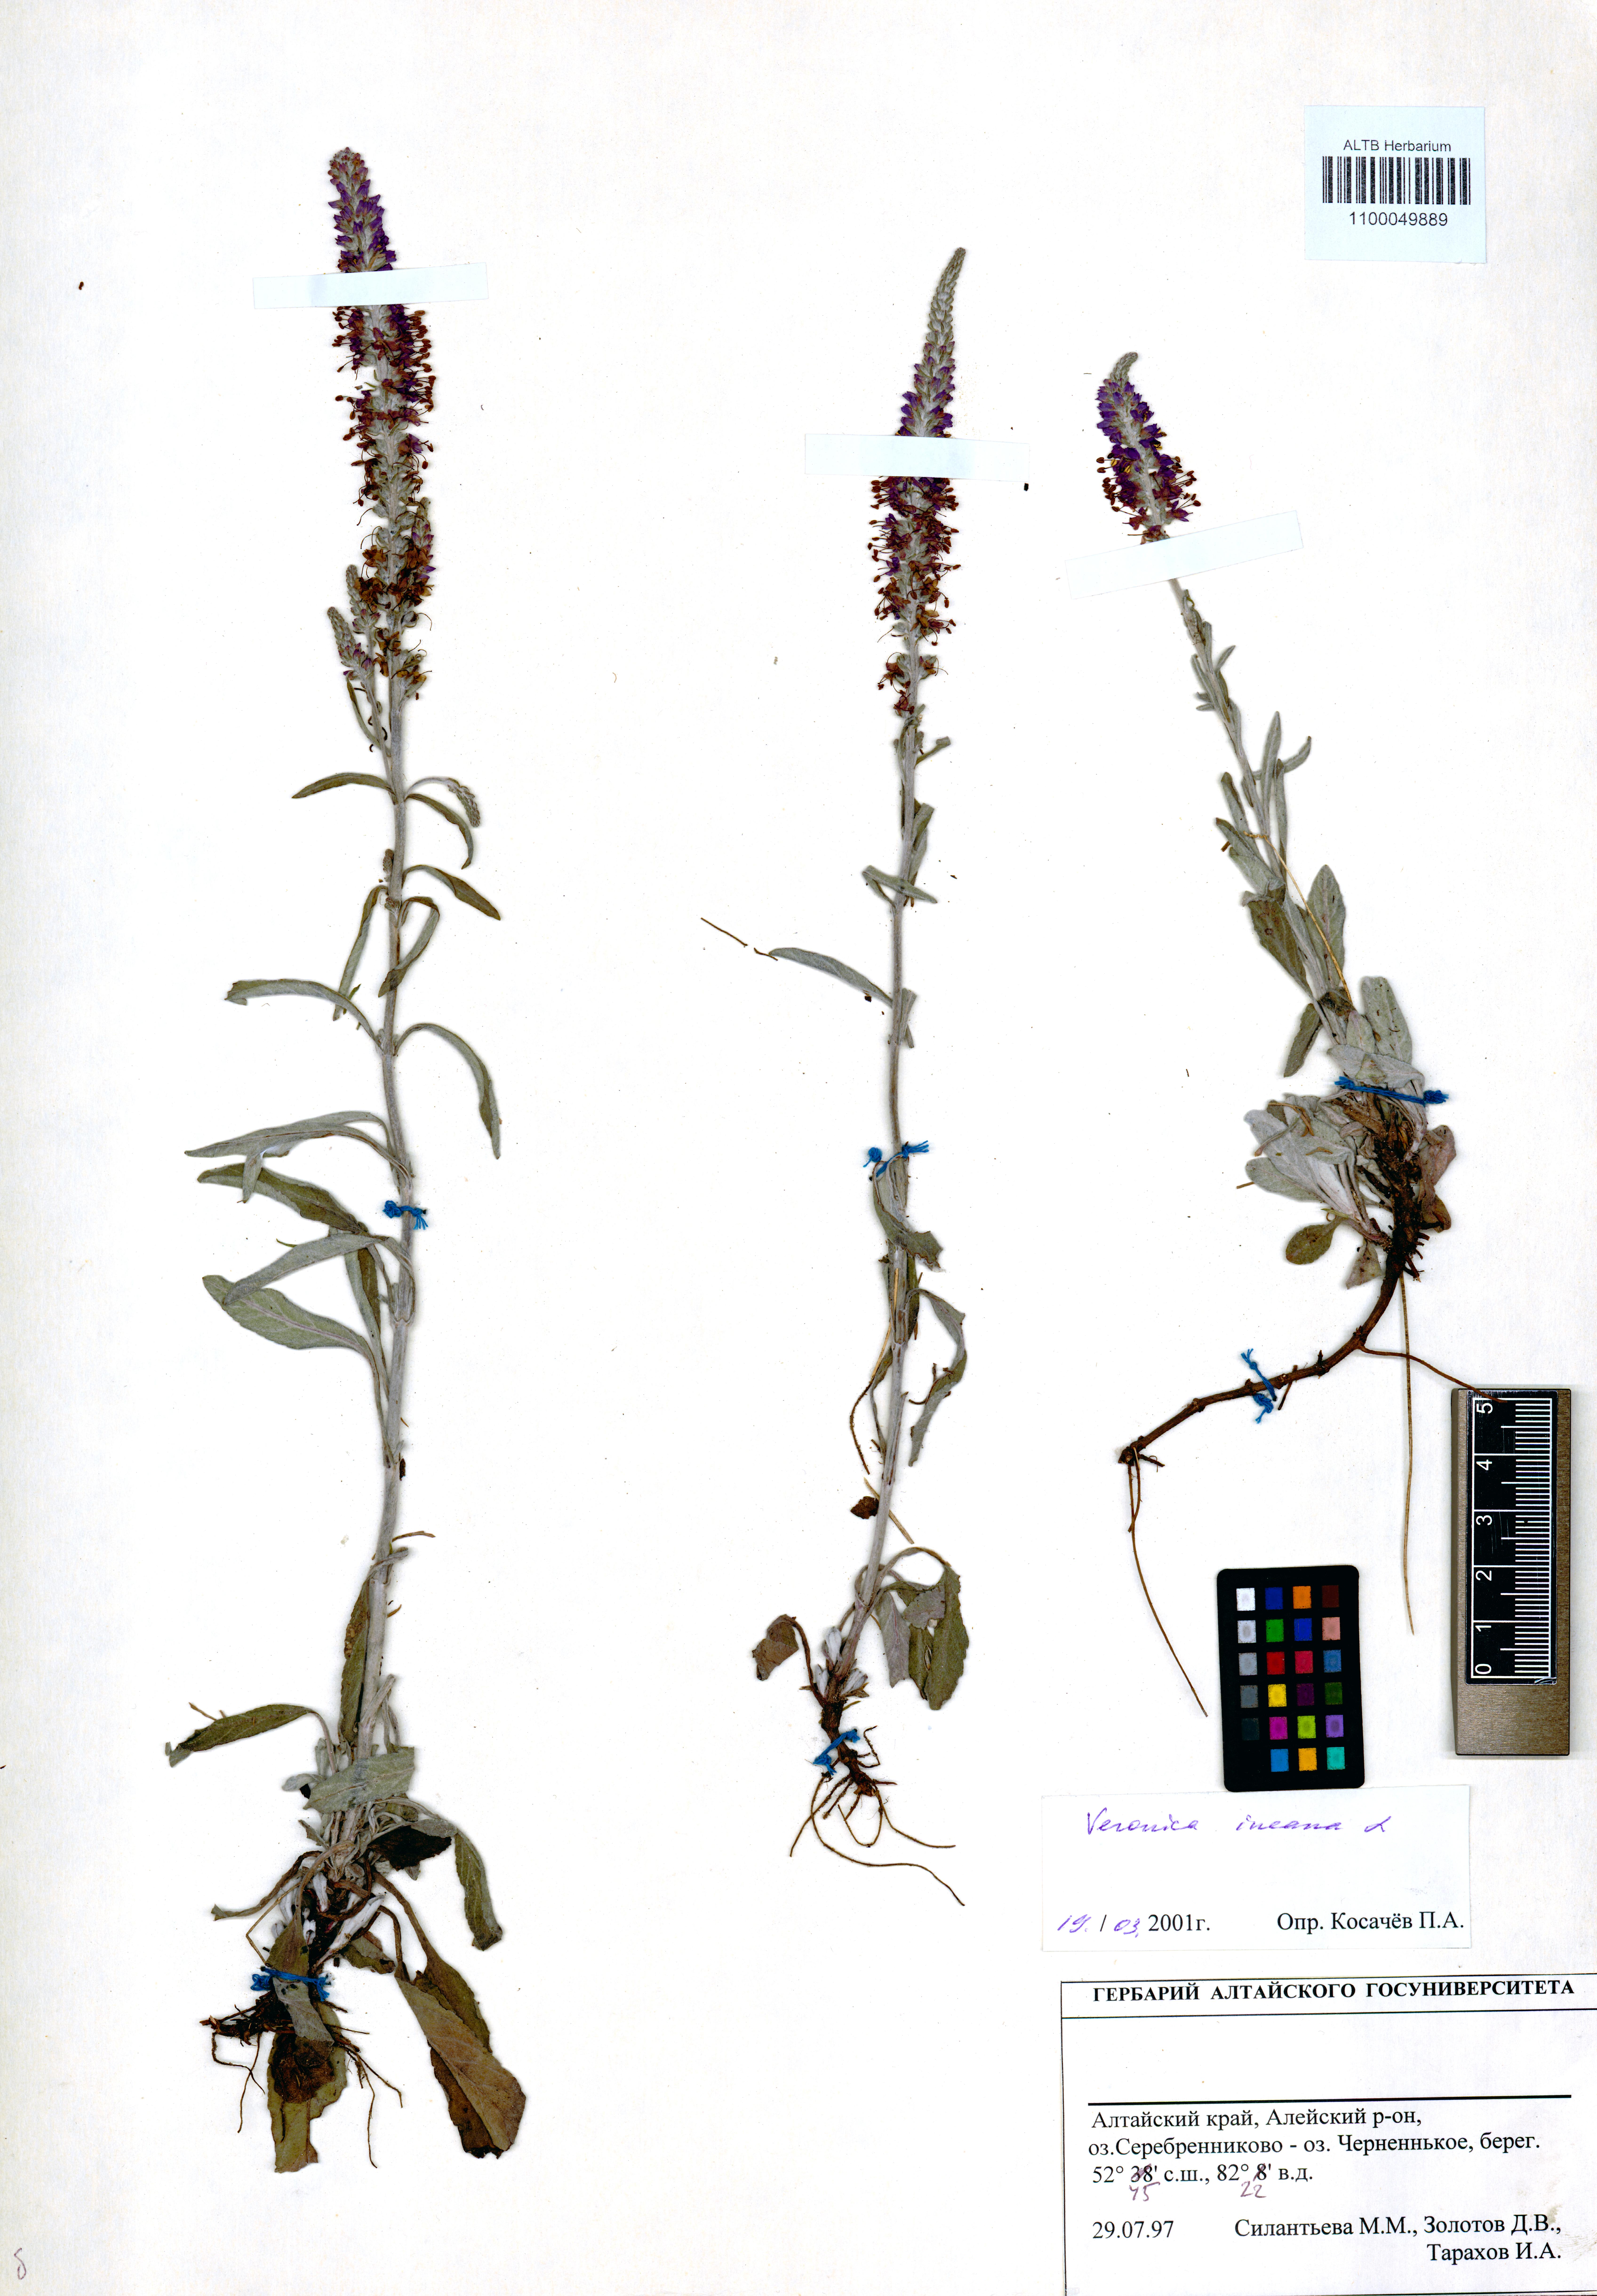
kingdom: Plantae
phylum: Tracheophyta
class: Magnoliopsida
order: Lamiales
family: Plantaginaceae
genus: Veronica
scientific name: Veronica incana
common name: Silver speedwell
